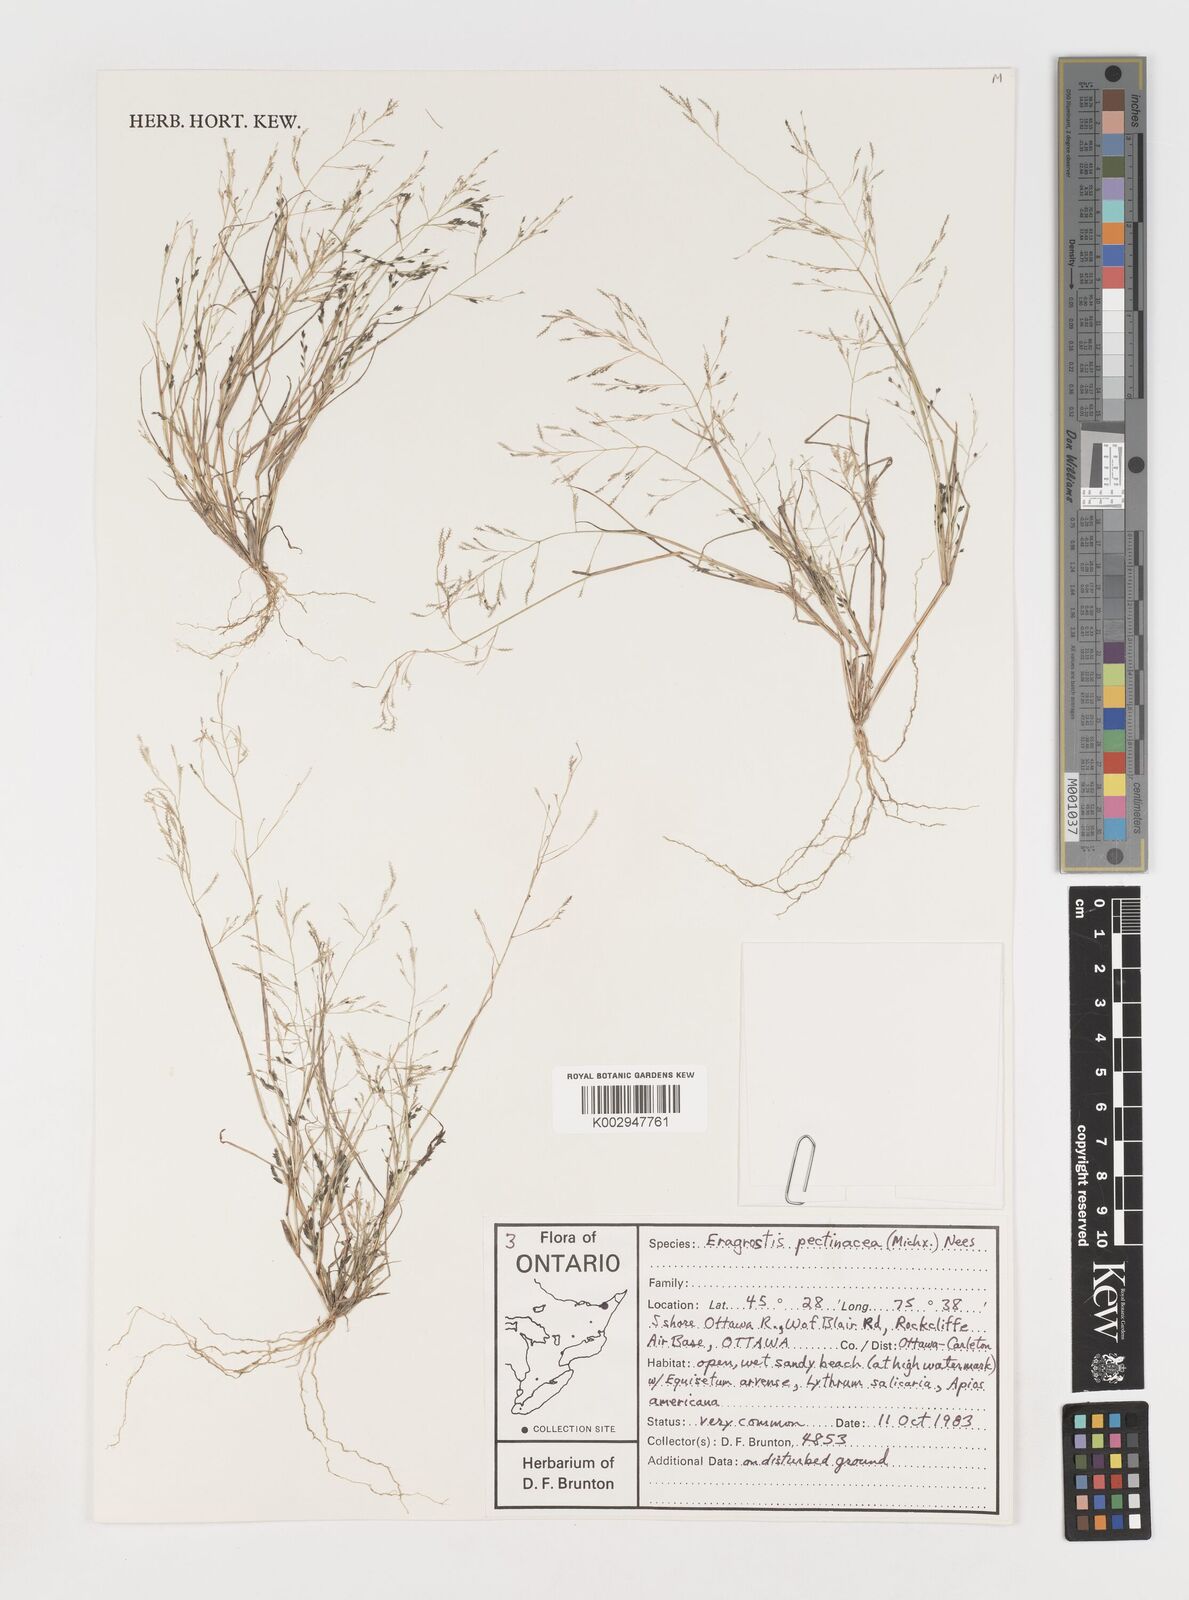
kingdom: Plantae
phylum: Tracheophyta
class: Liliopsida
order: Poales
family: Poaceae
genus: Eragrostis
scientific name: Eragrostis pectinacea
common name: Tufted lovegrass
